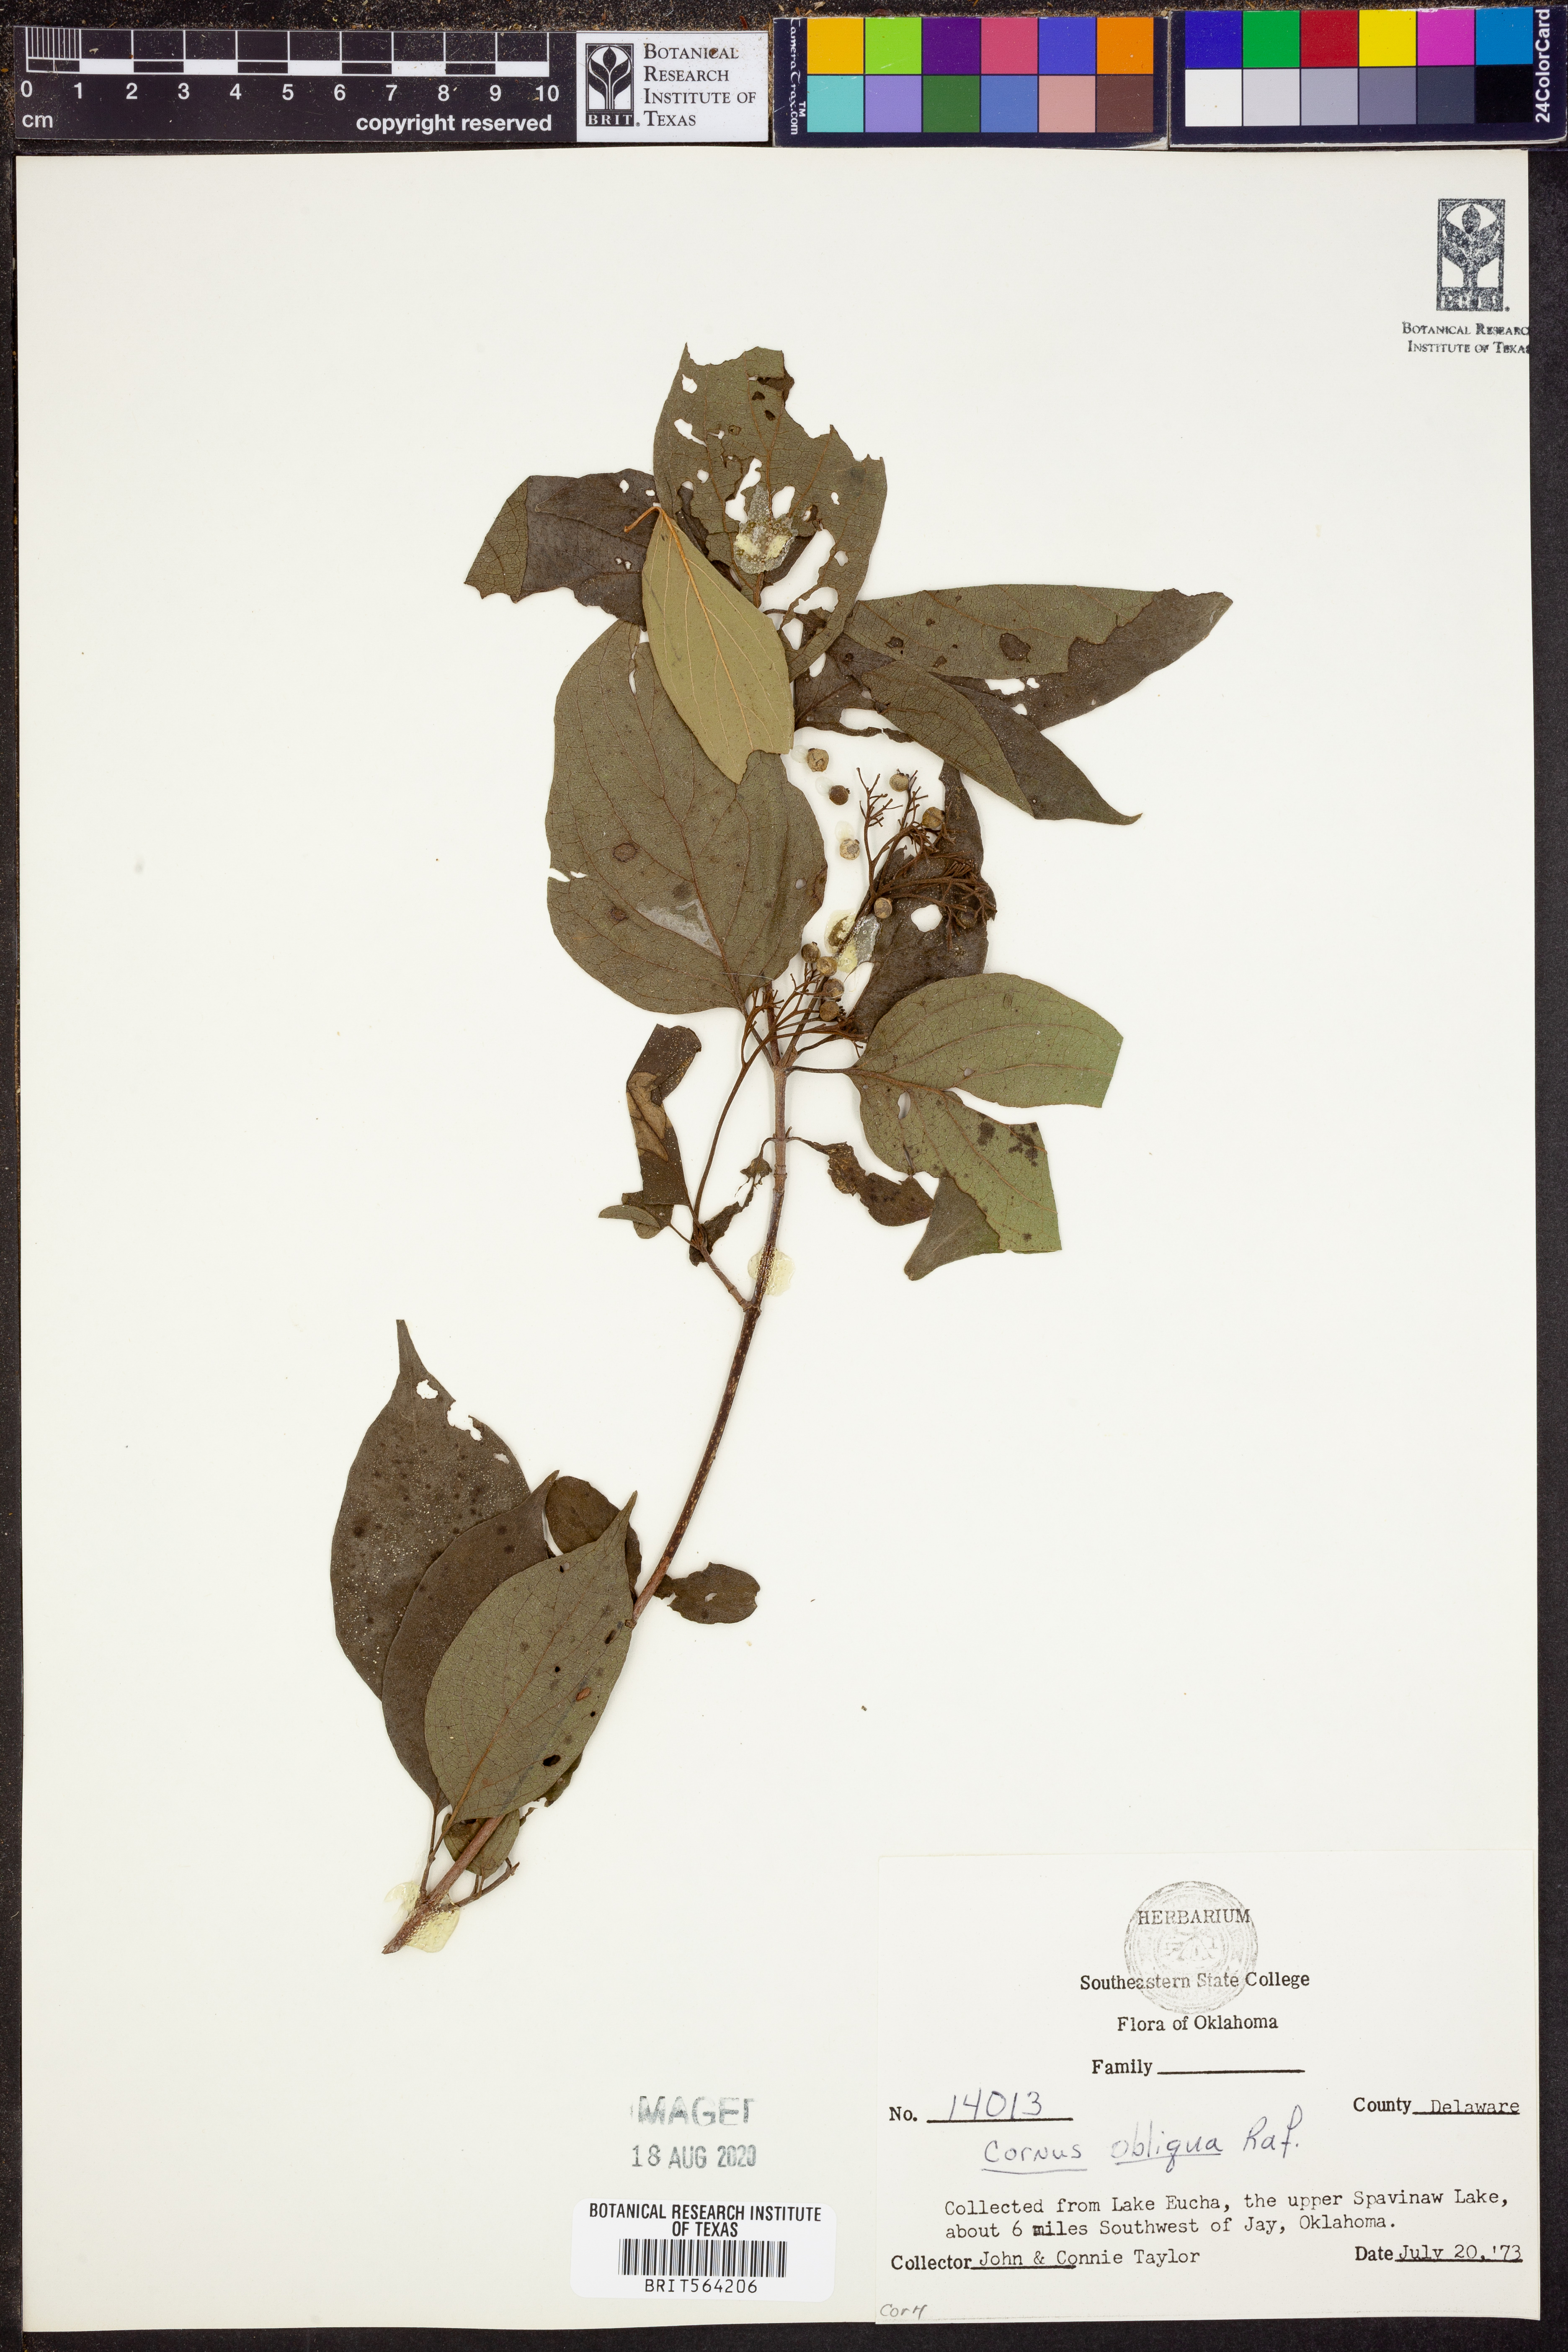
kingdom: Plantae
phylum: Tracheophyta
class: Magnoliopsida
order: Cornales
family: Cornaceae
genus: Cornus
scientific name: Cornus obliqua
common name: Pale dogwood
